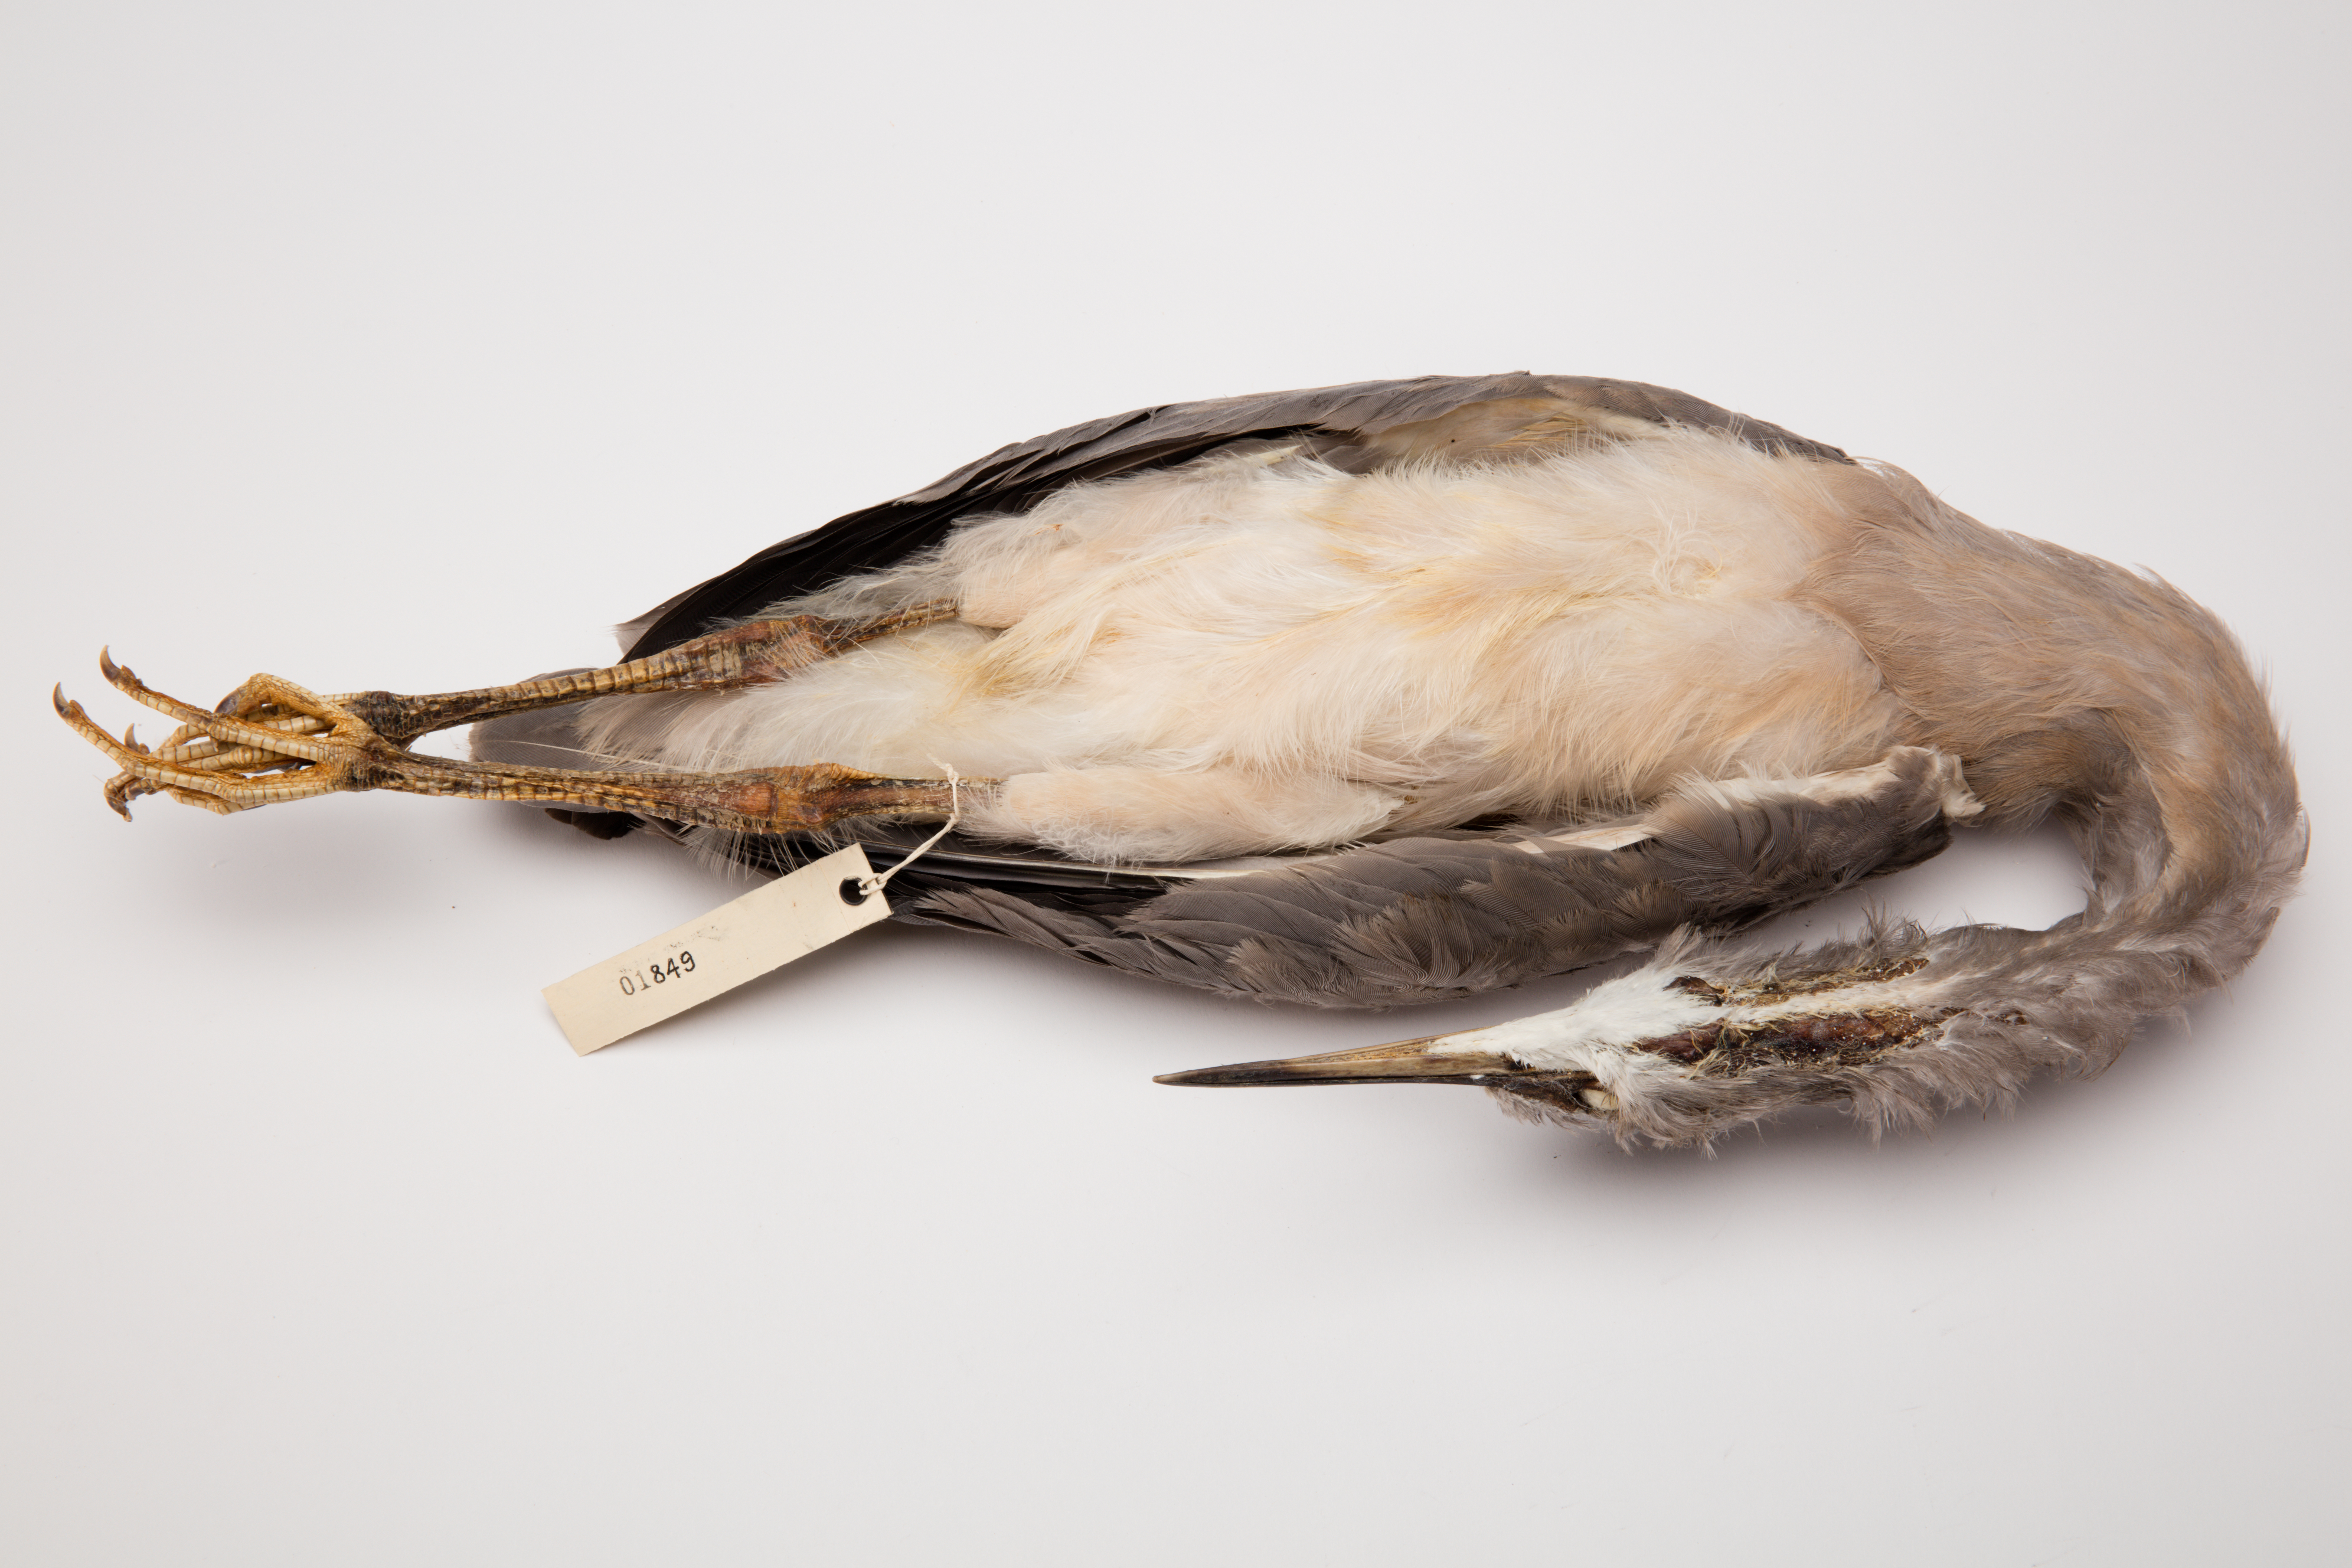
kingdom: Animalia
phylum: Chordata
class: Aves
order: Pelecaniformes
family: Ardeidae
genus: Egretta
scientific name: Egretta novaehollandiae
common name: White-faced heron
